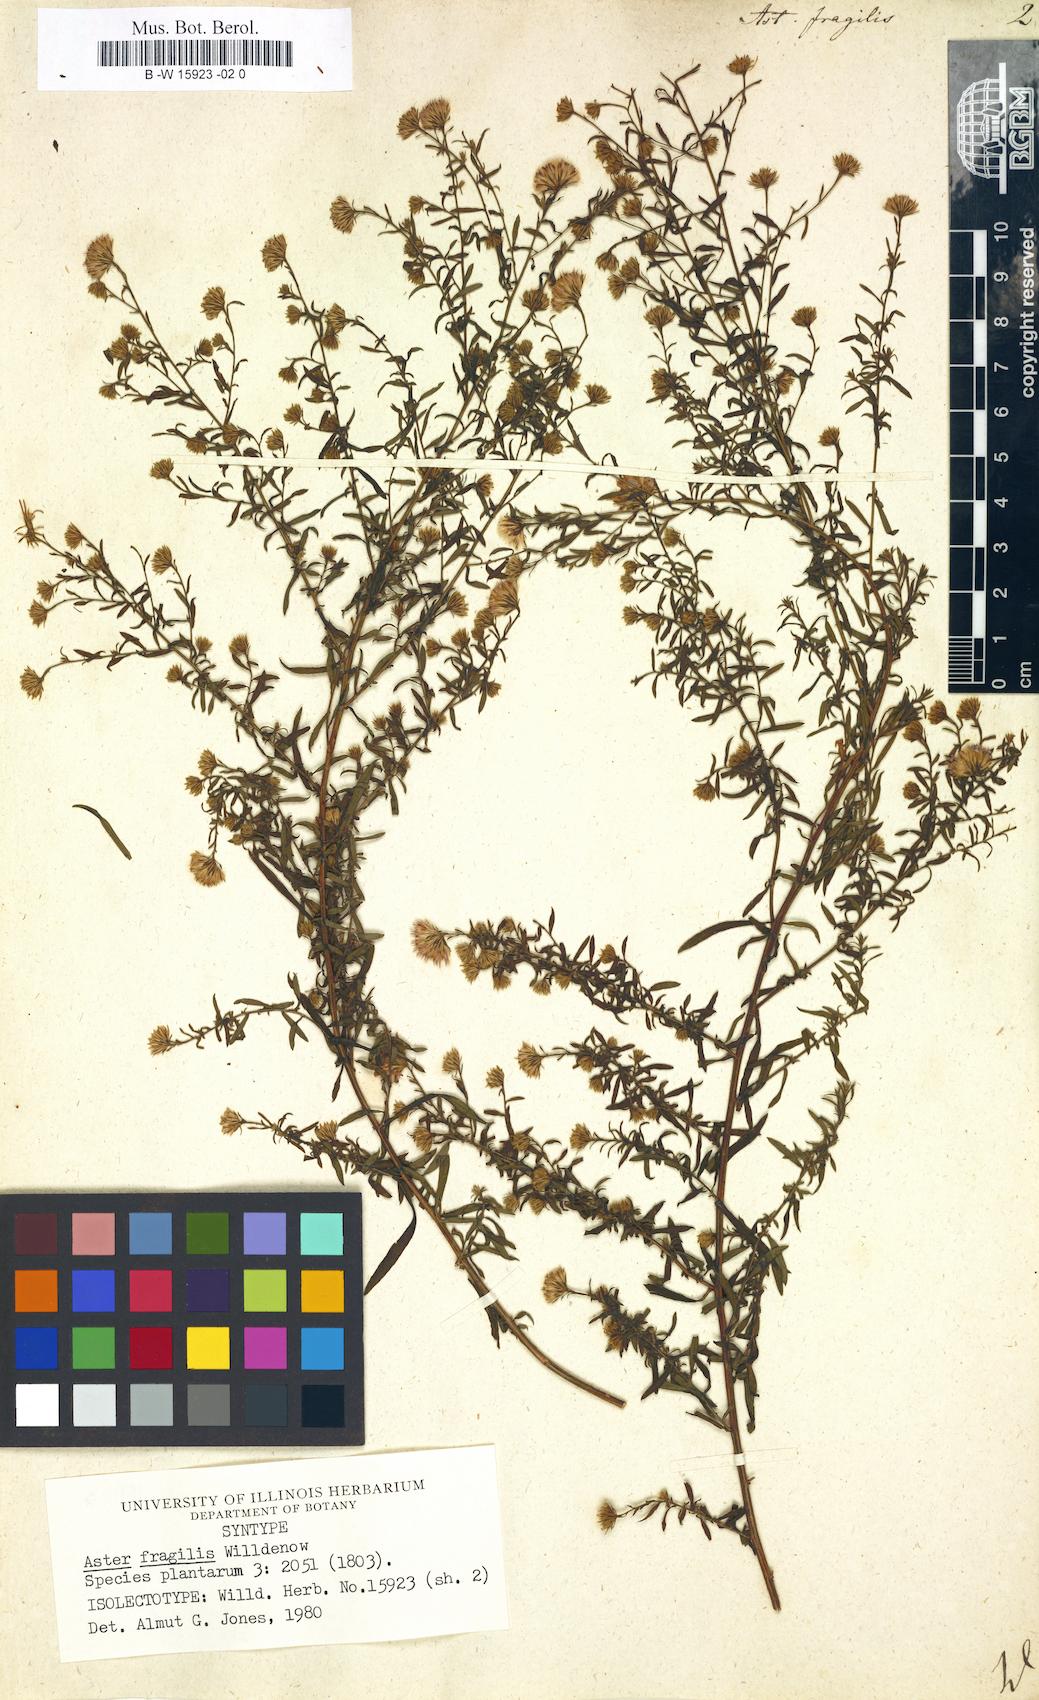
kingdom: Plantae
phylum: Tracheophyta
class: Magnoliopsida
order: Asterales
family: Asteraceae
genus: Aster
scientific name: Aster fragilis
